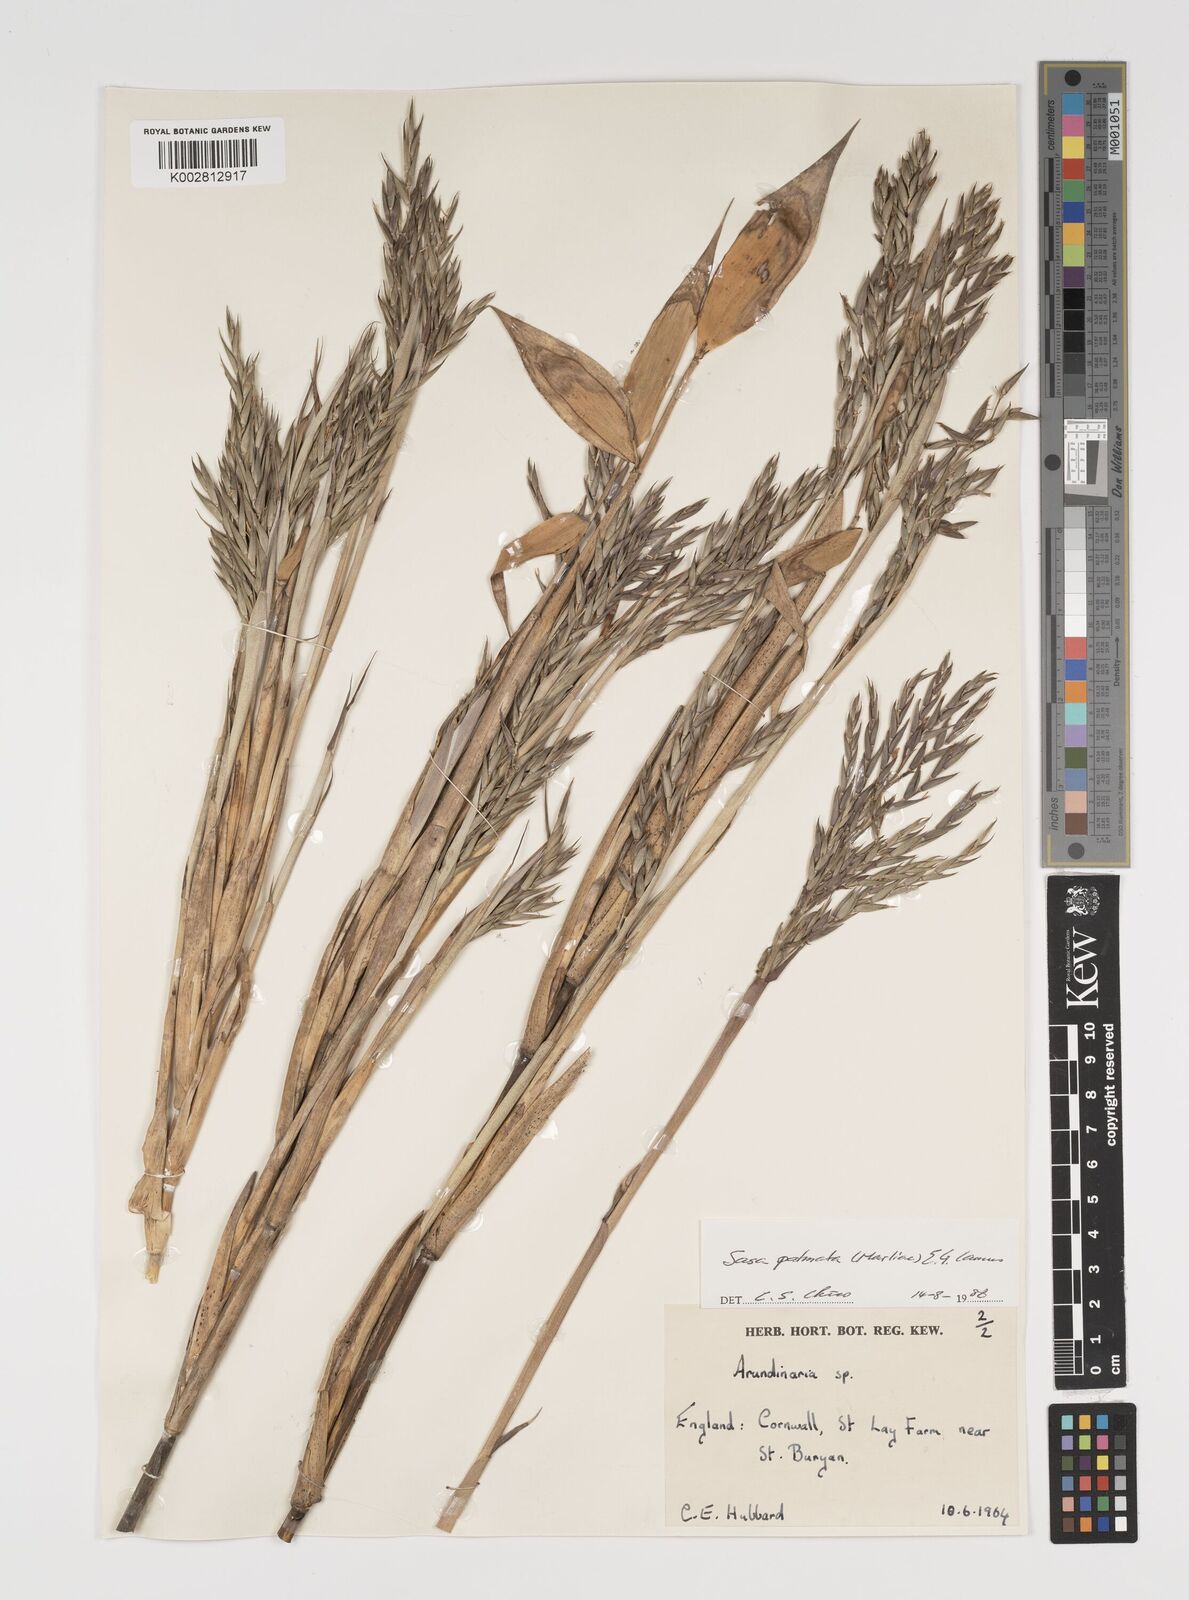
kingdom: Plantae
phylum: Tracheophyta
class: Liliopsida
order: Poales
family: Poaceae
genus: Sasa
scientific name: Sasa palmata
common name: Broad-leaved bamboo
